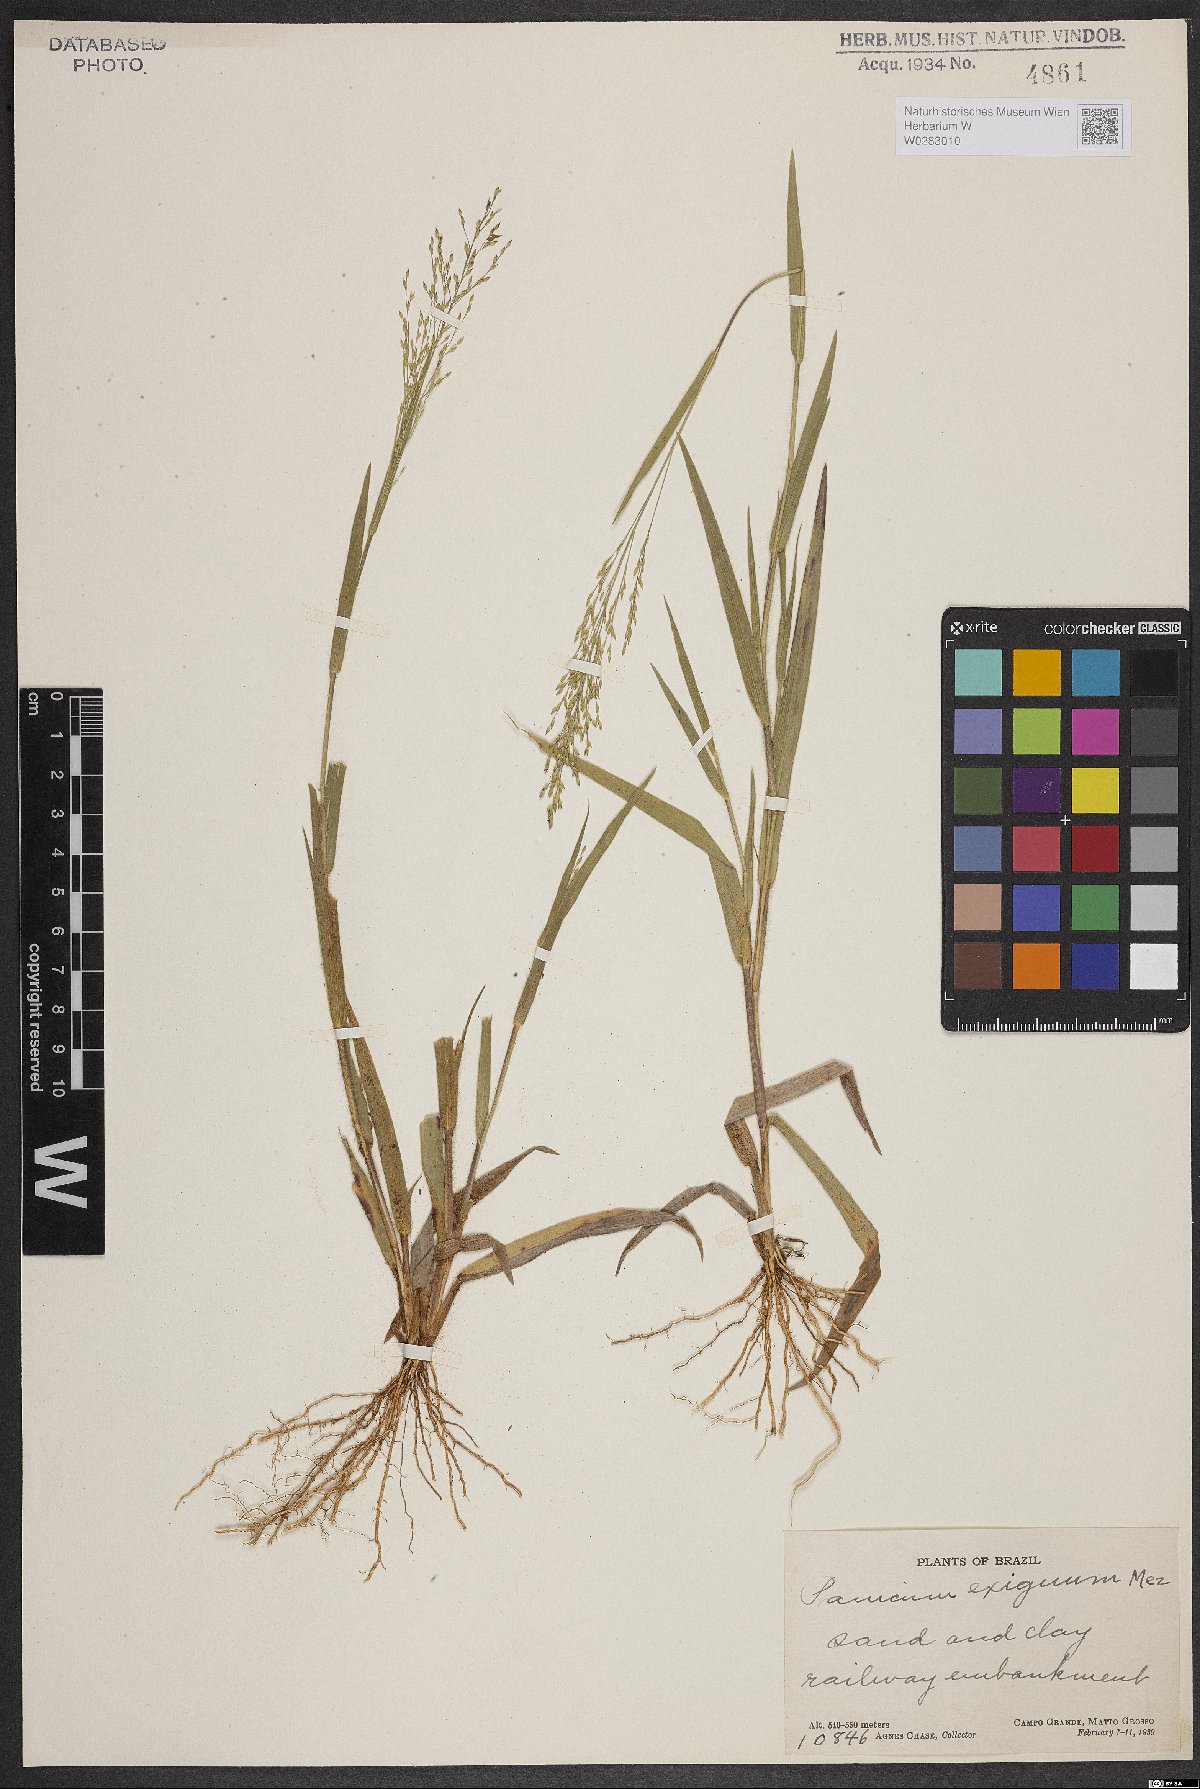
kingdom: Plantae
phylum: Tracheophyta
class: Liliopsida
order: Poales
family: Poaceae
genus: Panicum
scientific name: Panicum exiguum
